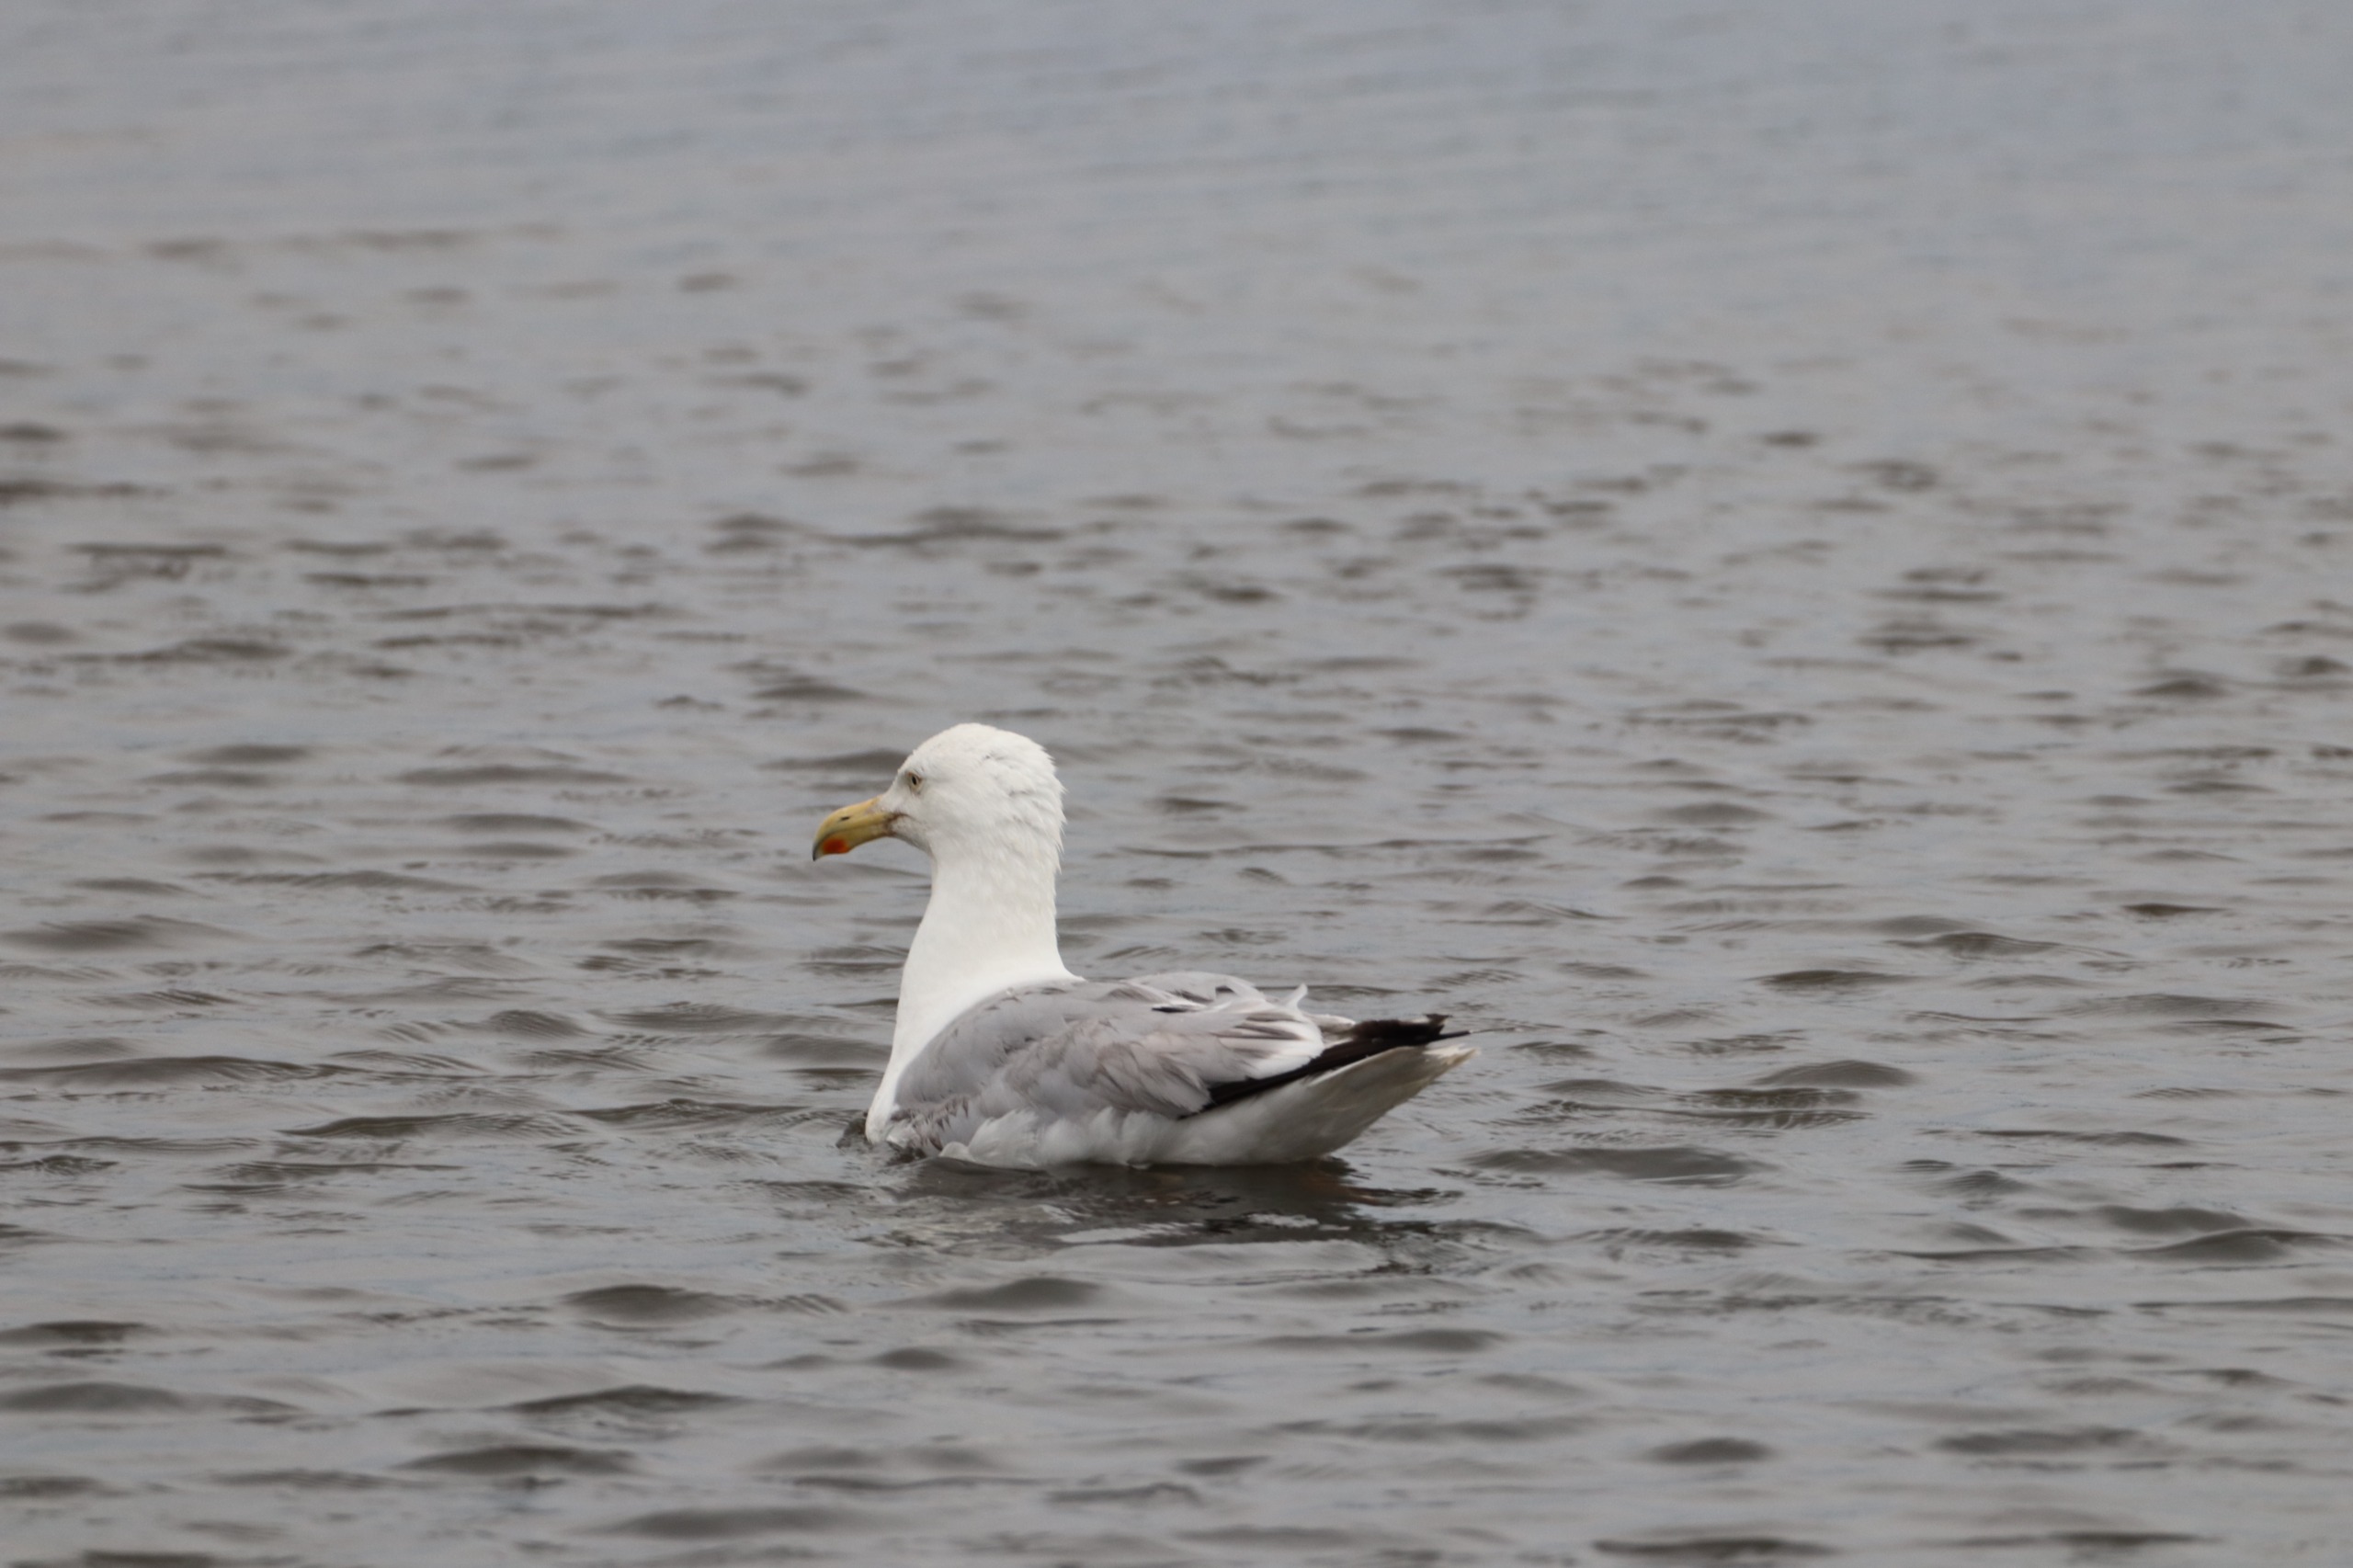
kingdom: Animalia
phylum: Chordata
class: Aves
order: Charadriiformes
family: Laridae
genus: Larus
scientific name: Larus argentatus
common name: Sølvmåge
